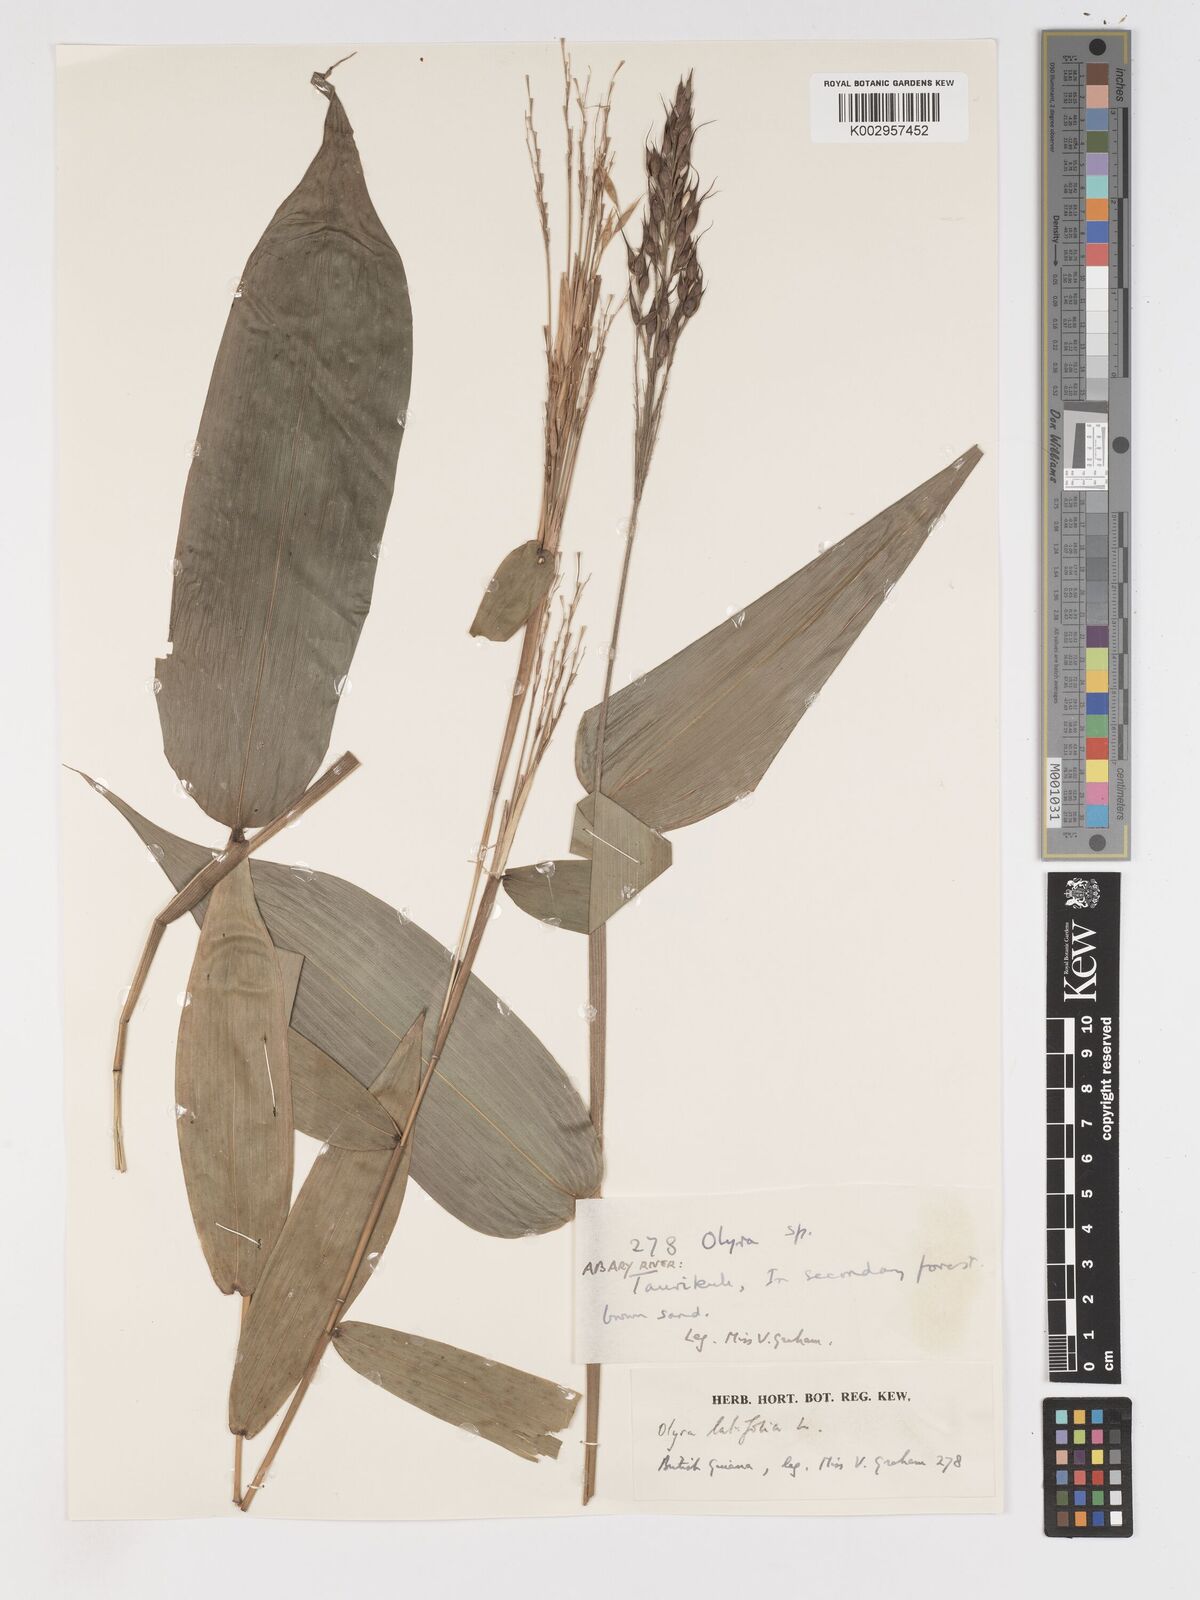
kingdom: Plantae
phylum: Tracheophyta
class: Liliopsida
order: Poales
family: Poaceae
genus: Olyra
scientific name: Olyra latifolia
